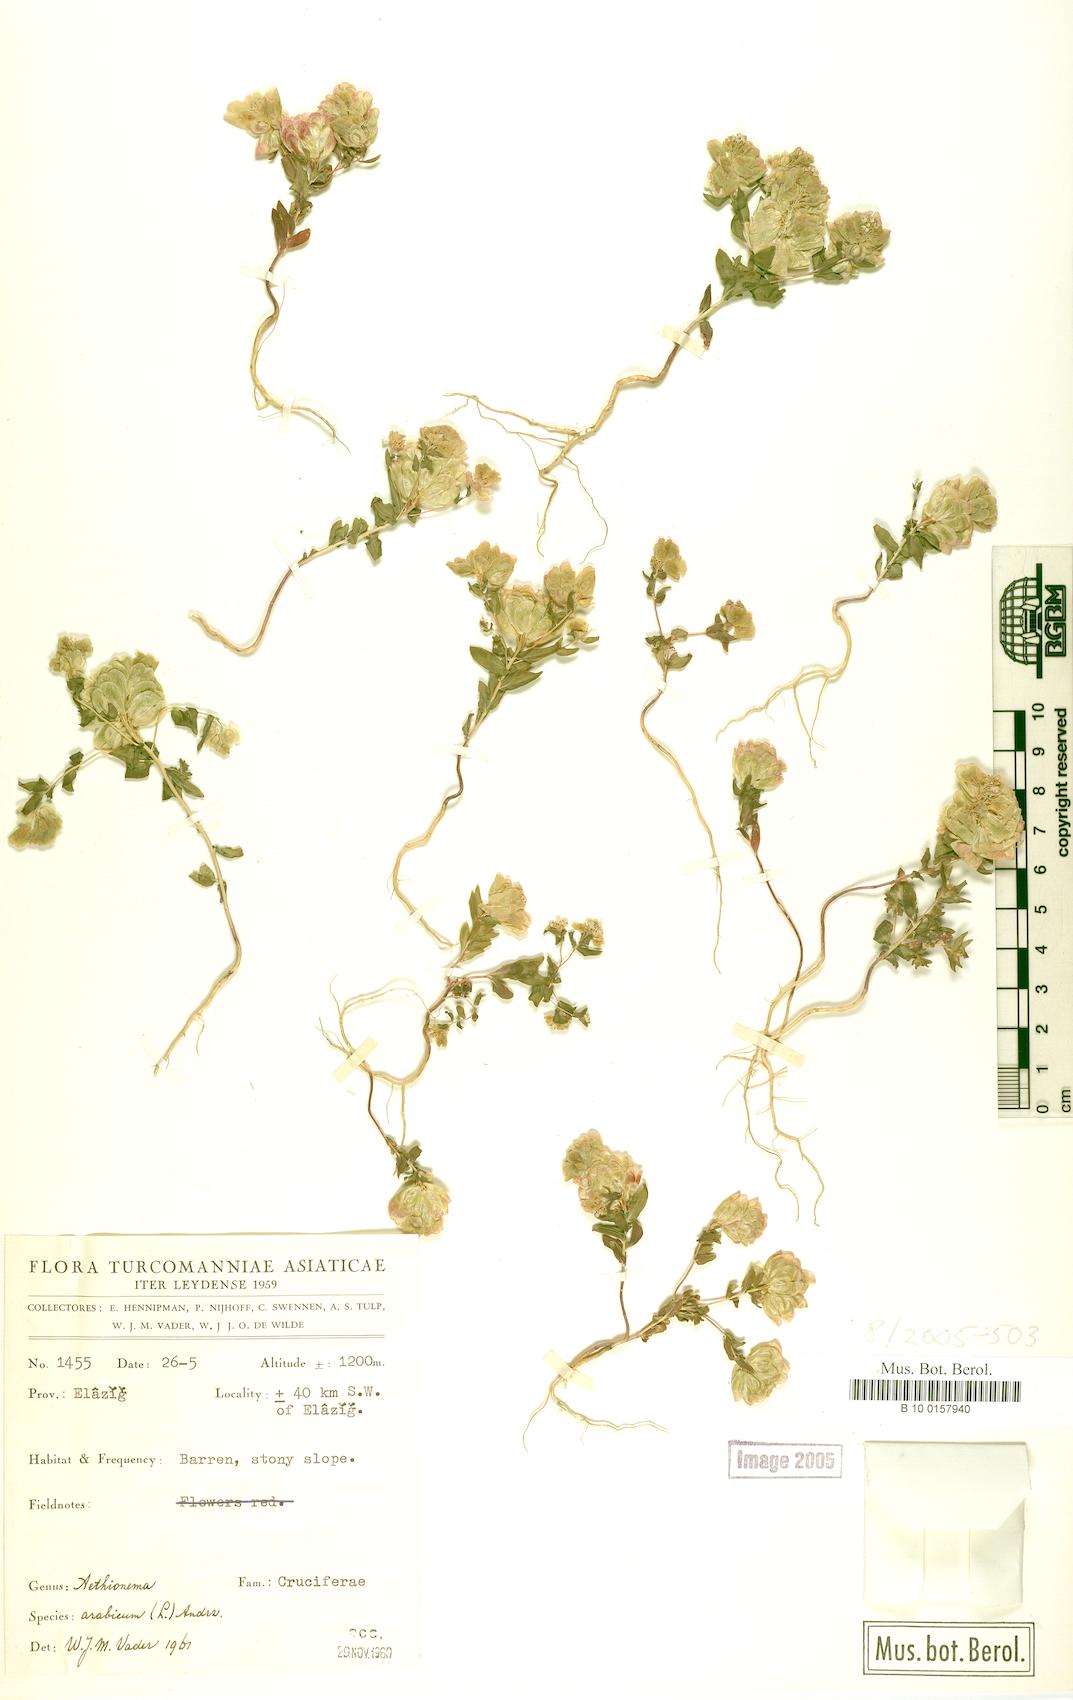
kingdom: Plantae
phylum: Tracheophyta
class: Magnoliopsida
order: Brassicales
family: Brassicaceae
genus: Aethionema
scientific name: Aethionema arabicum
